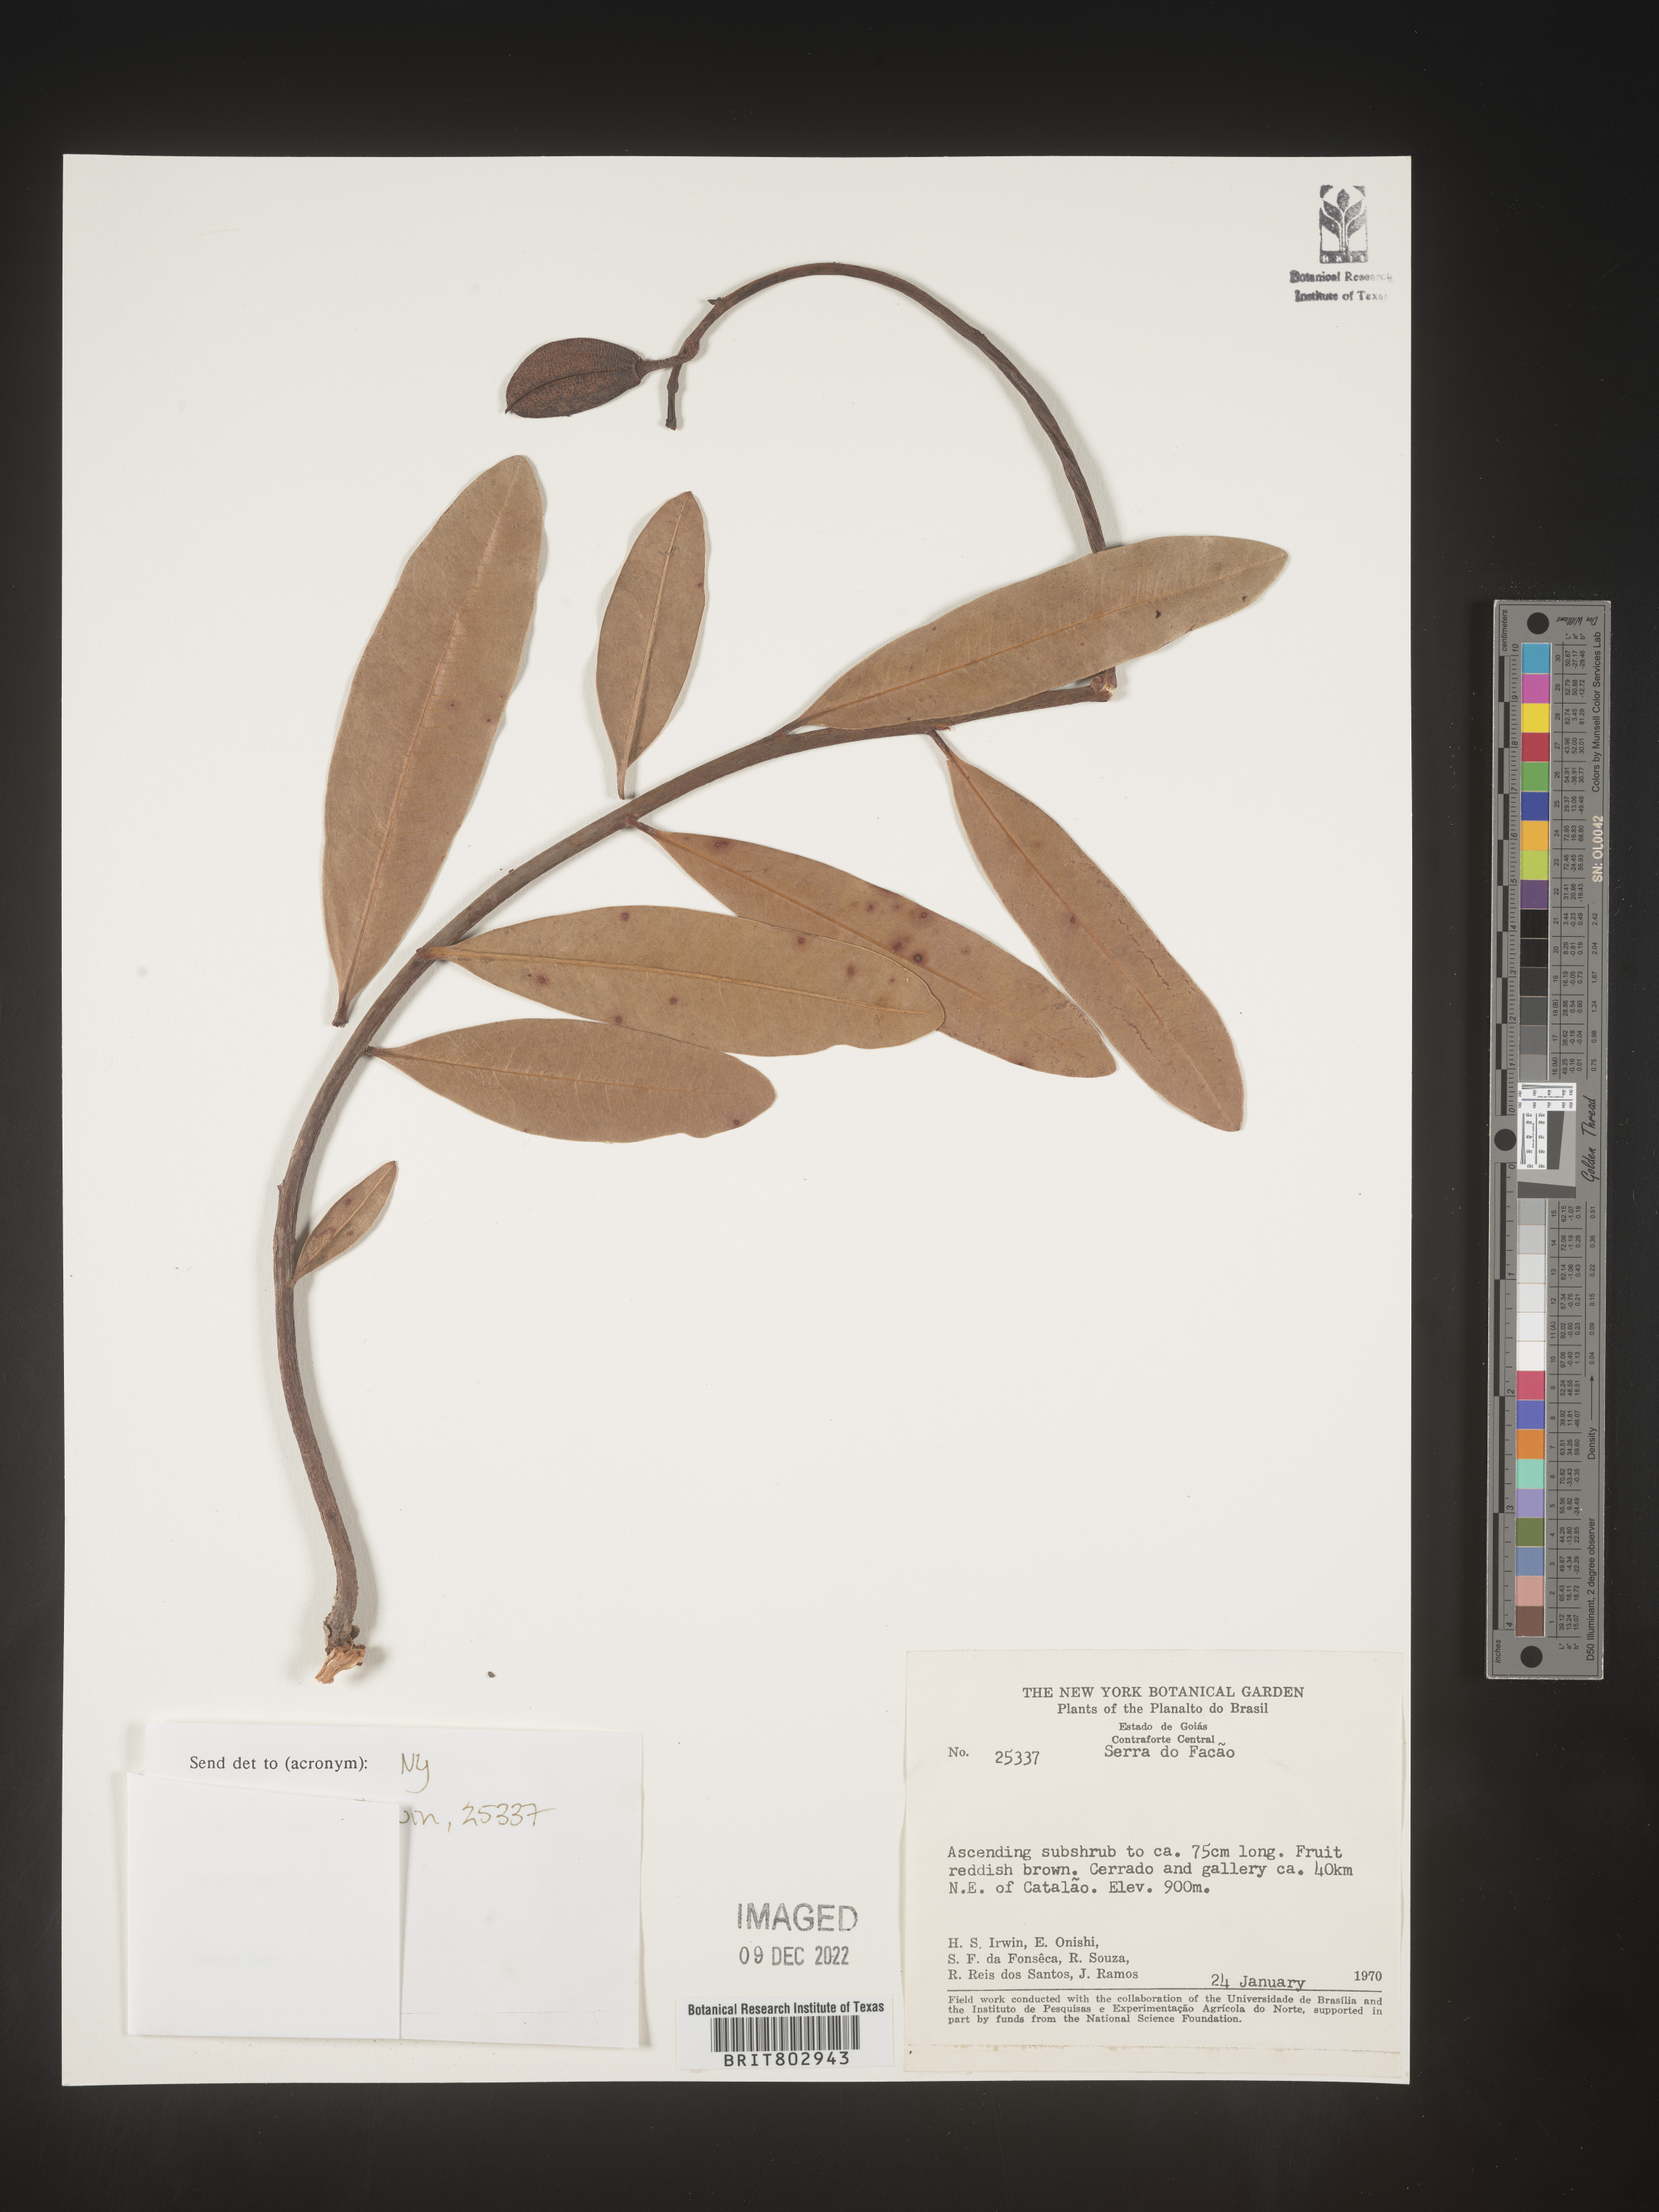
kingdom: Plantae
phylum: Tracheophyta
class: Magnoliopsida
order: Malpighiales
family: Calophyllaceae
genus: Kielmeyera
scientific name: Kielmeyera
